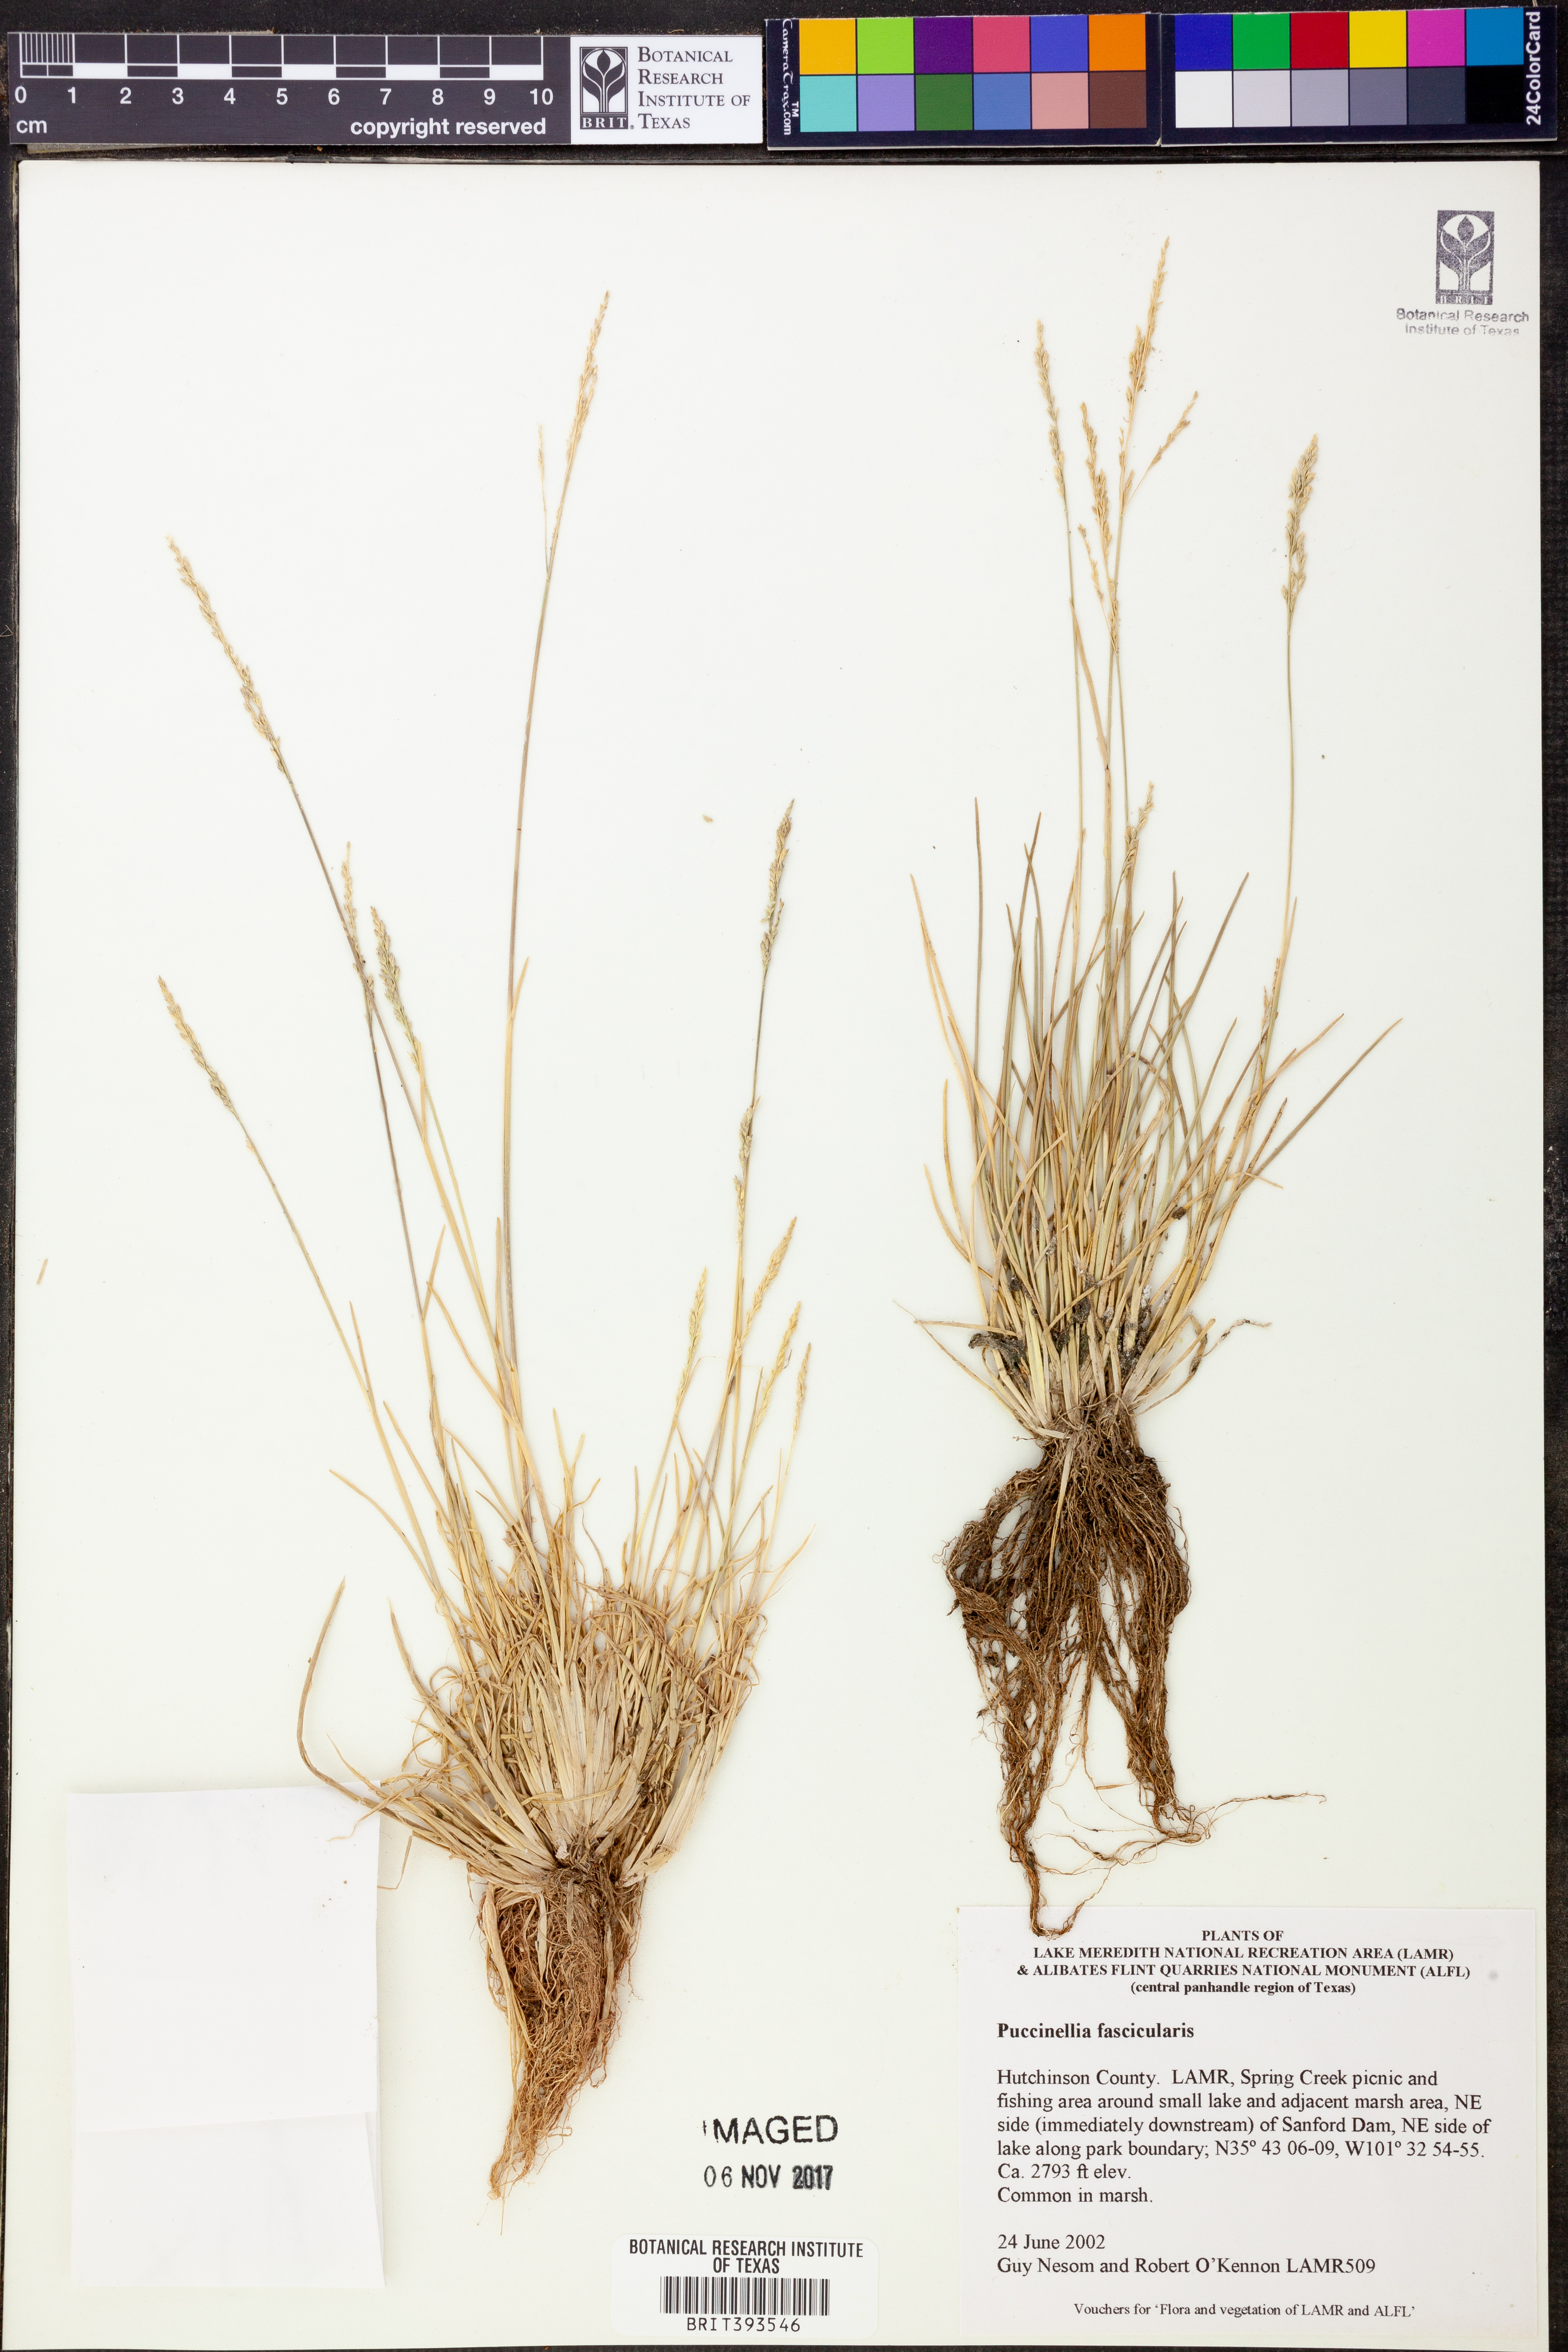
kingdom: Plantae
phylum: Tracheophyta
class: Liliopsida
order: Poales
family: Poaceae
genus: Puccinellia
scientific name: Puccinellia
